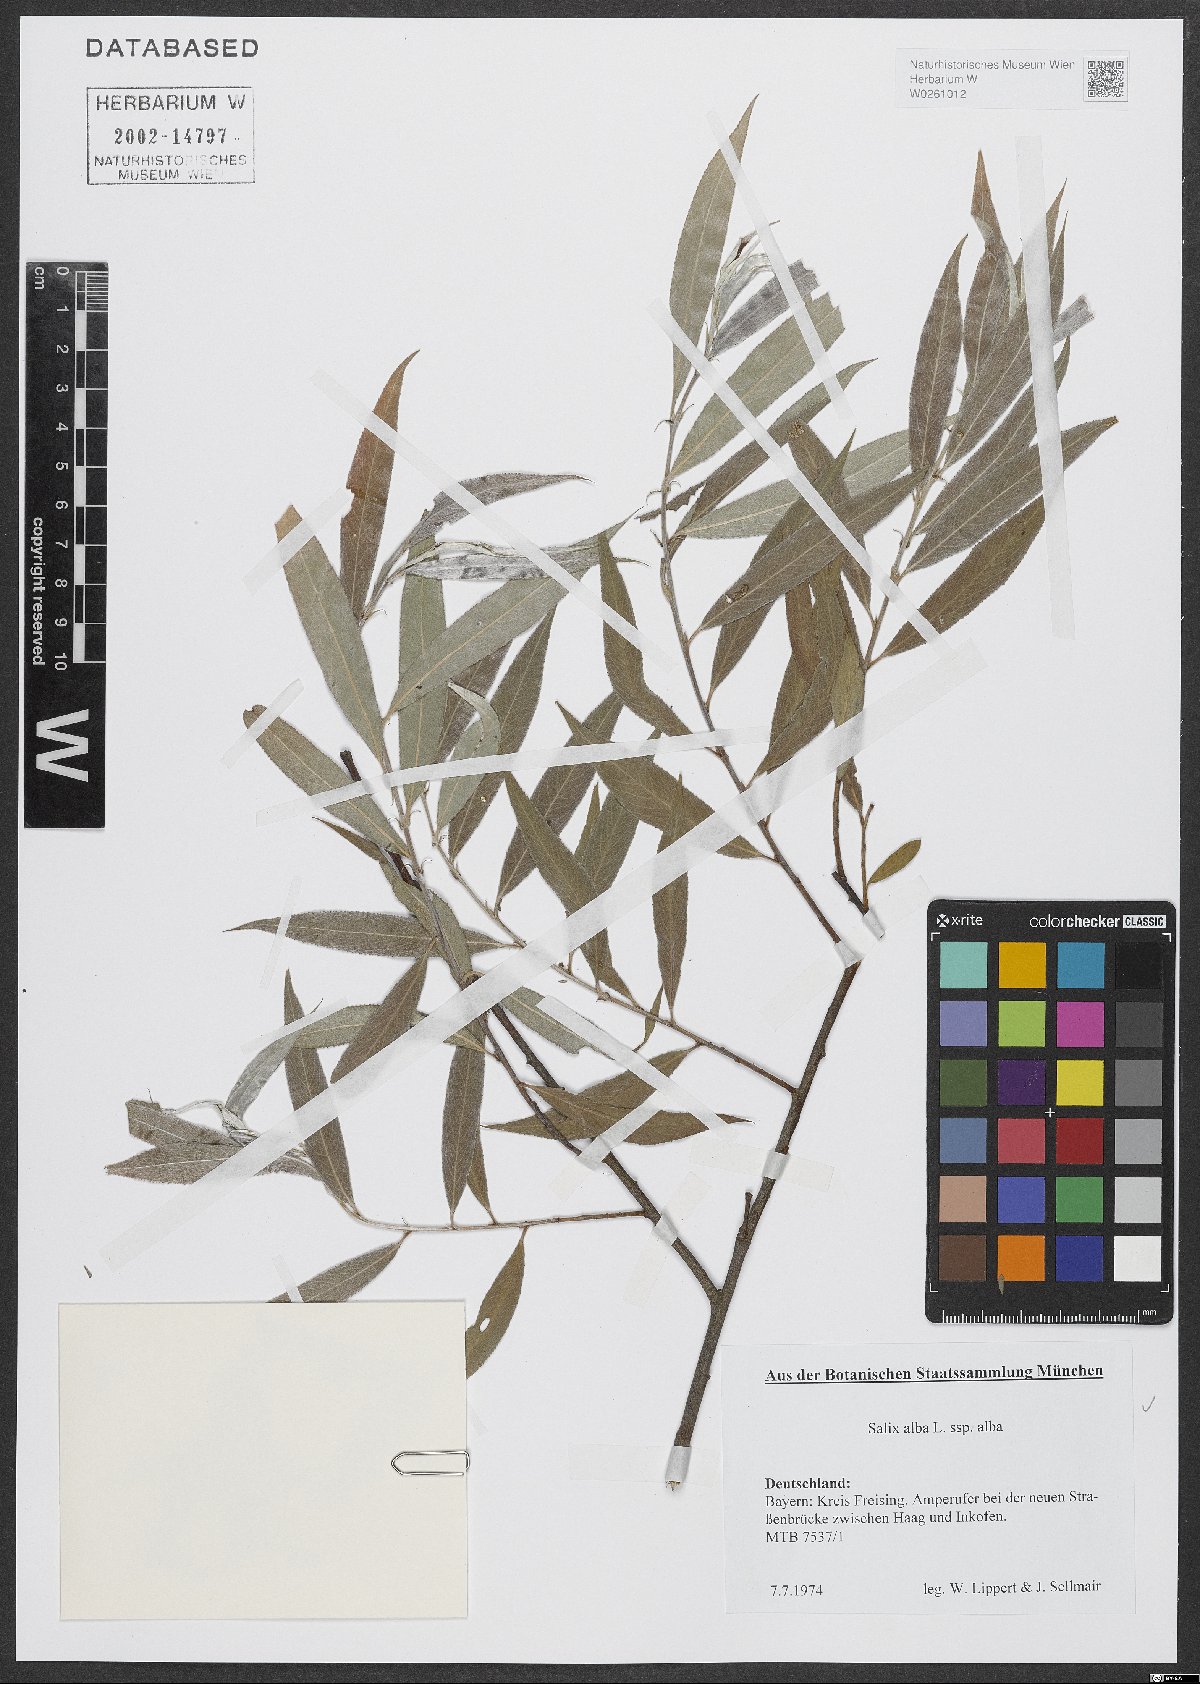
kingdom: Plantae
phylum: Tracheophyta
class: Magnoliopsida
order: Malpighiales
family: Salicaceae
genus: Salix
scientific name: Salix alba
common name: White willow
